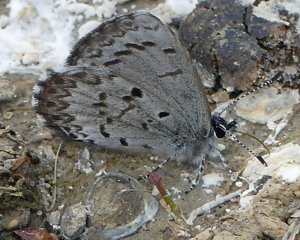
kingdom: Animalia
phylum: Arthropoda
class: Insecta
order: Lepidoptera
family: Lycaenidae
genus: Celastrina
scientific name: Celastrina lucia
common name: Northern Spring Azure
